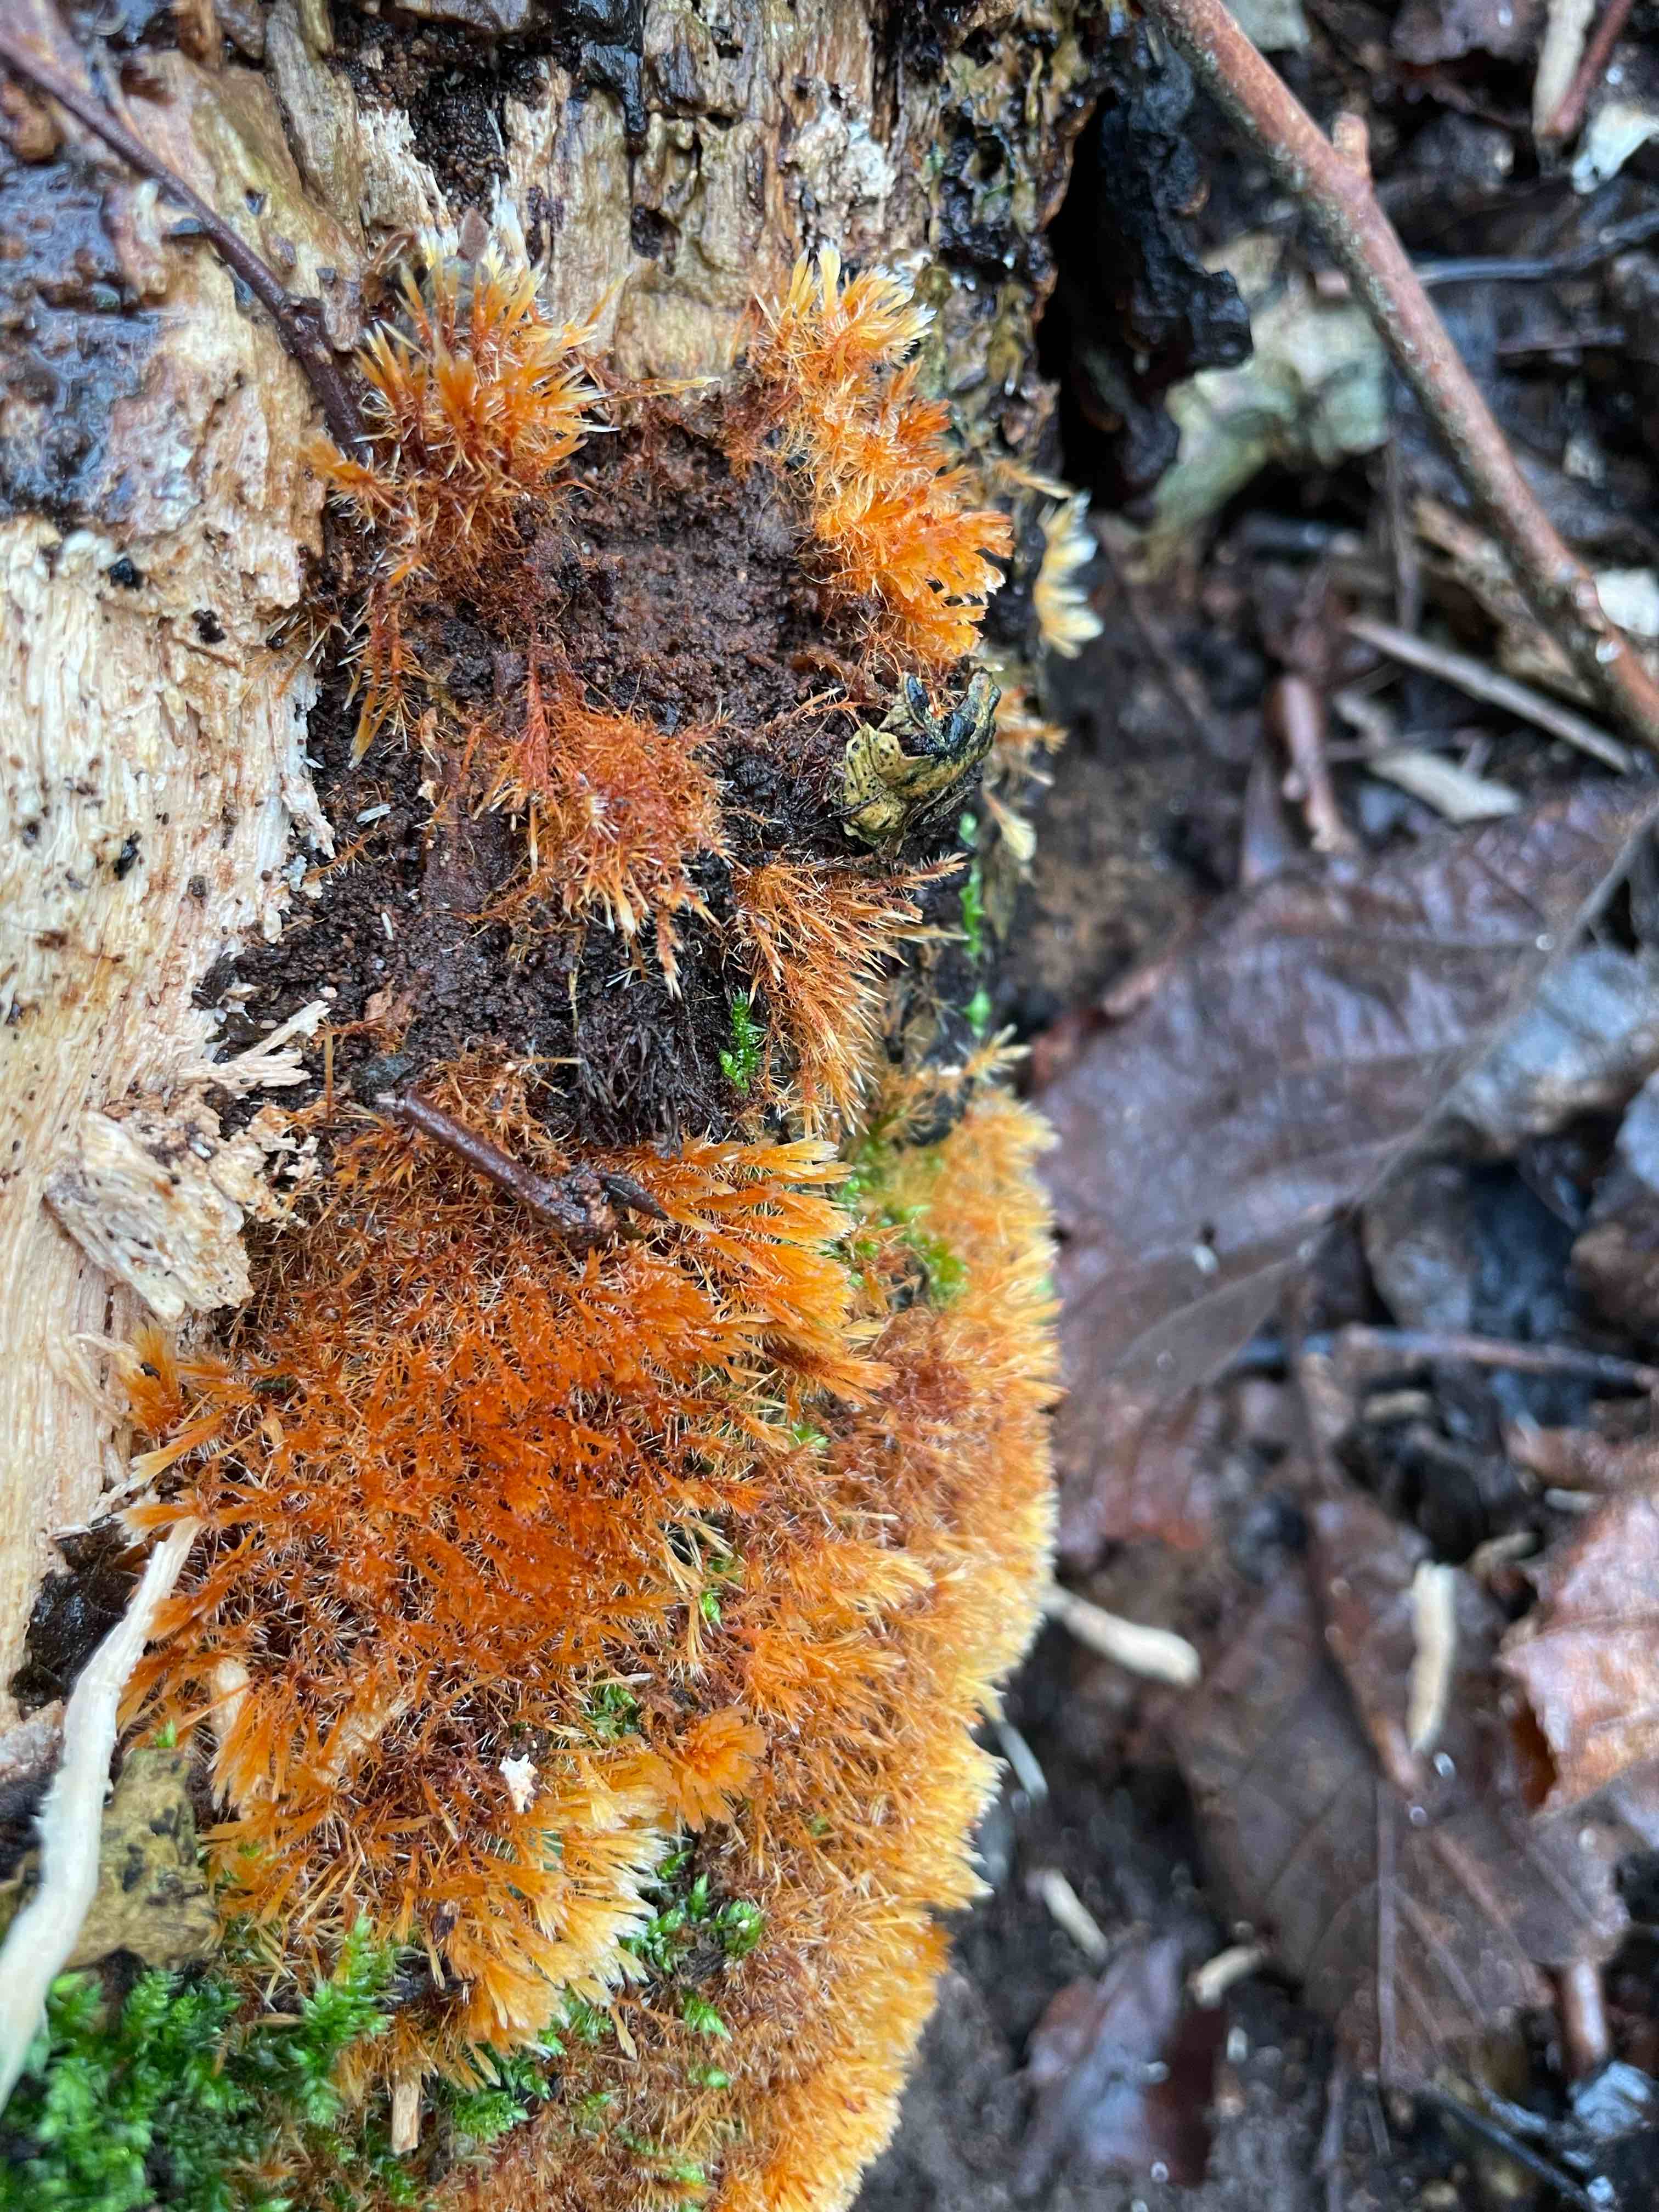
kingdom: Fungi
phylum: Basidiomycota
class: Agaricomycetes
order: Agaricales
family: Psathyrellaceae
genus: Ozonium
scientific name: Ozonium
